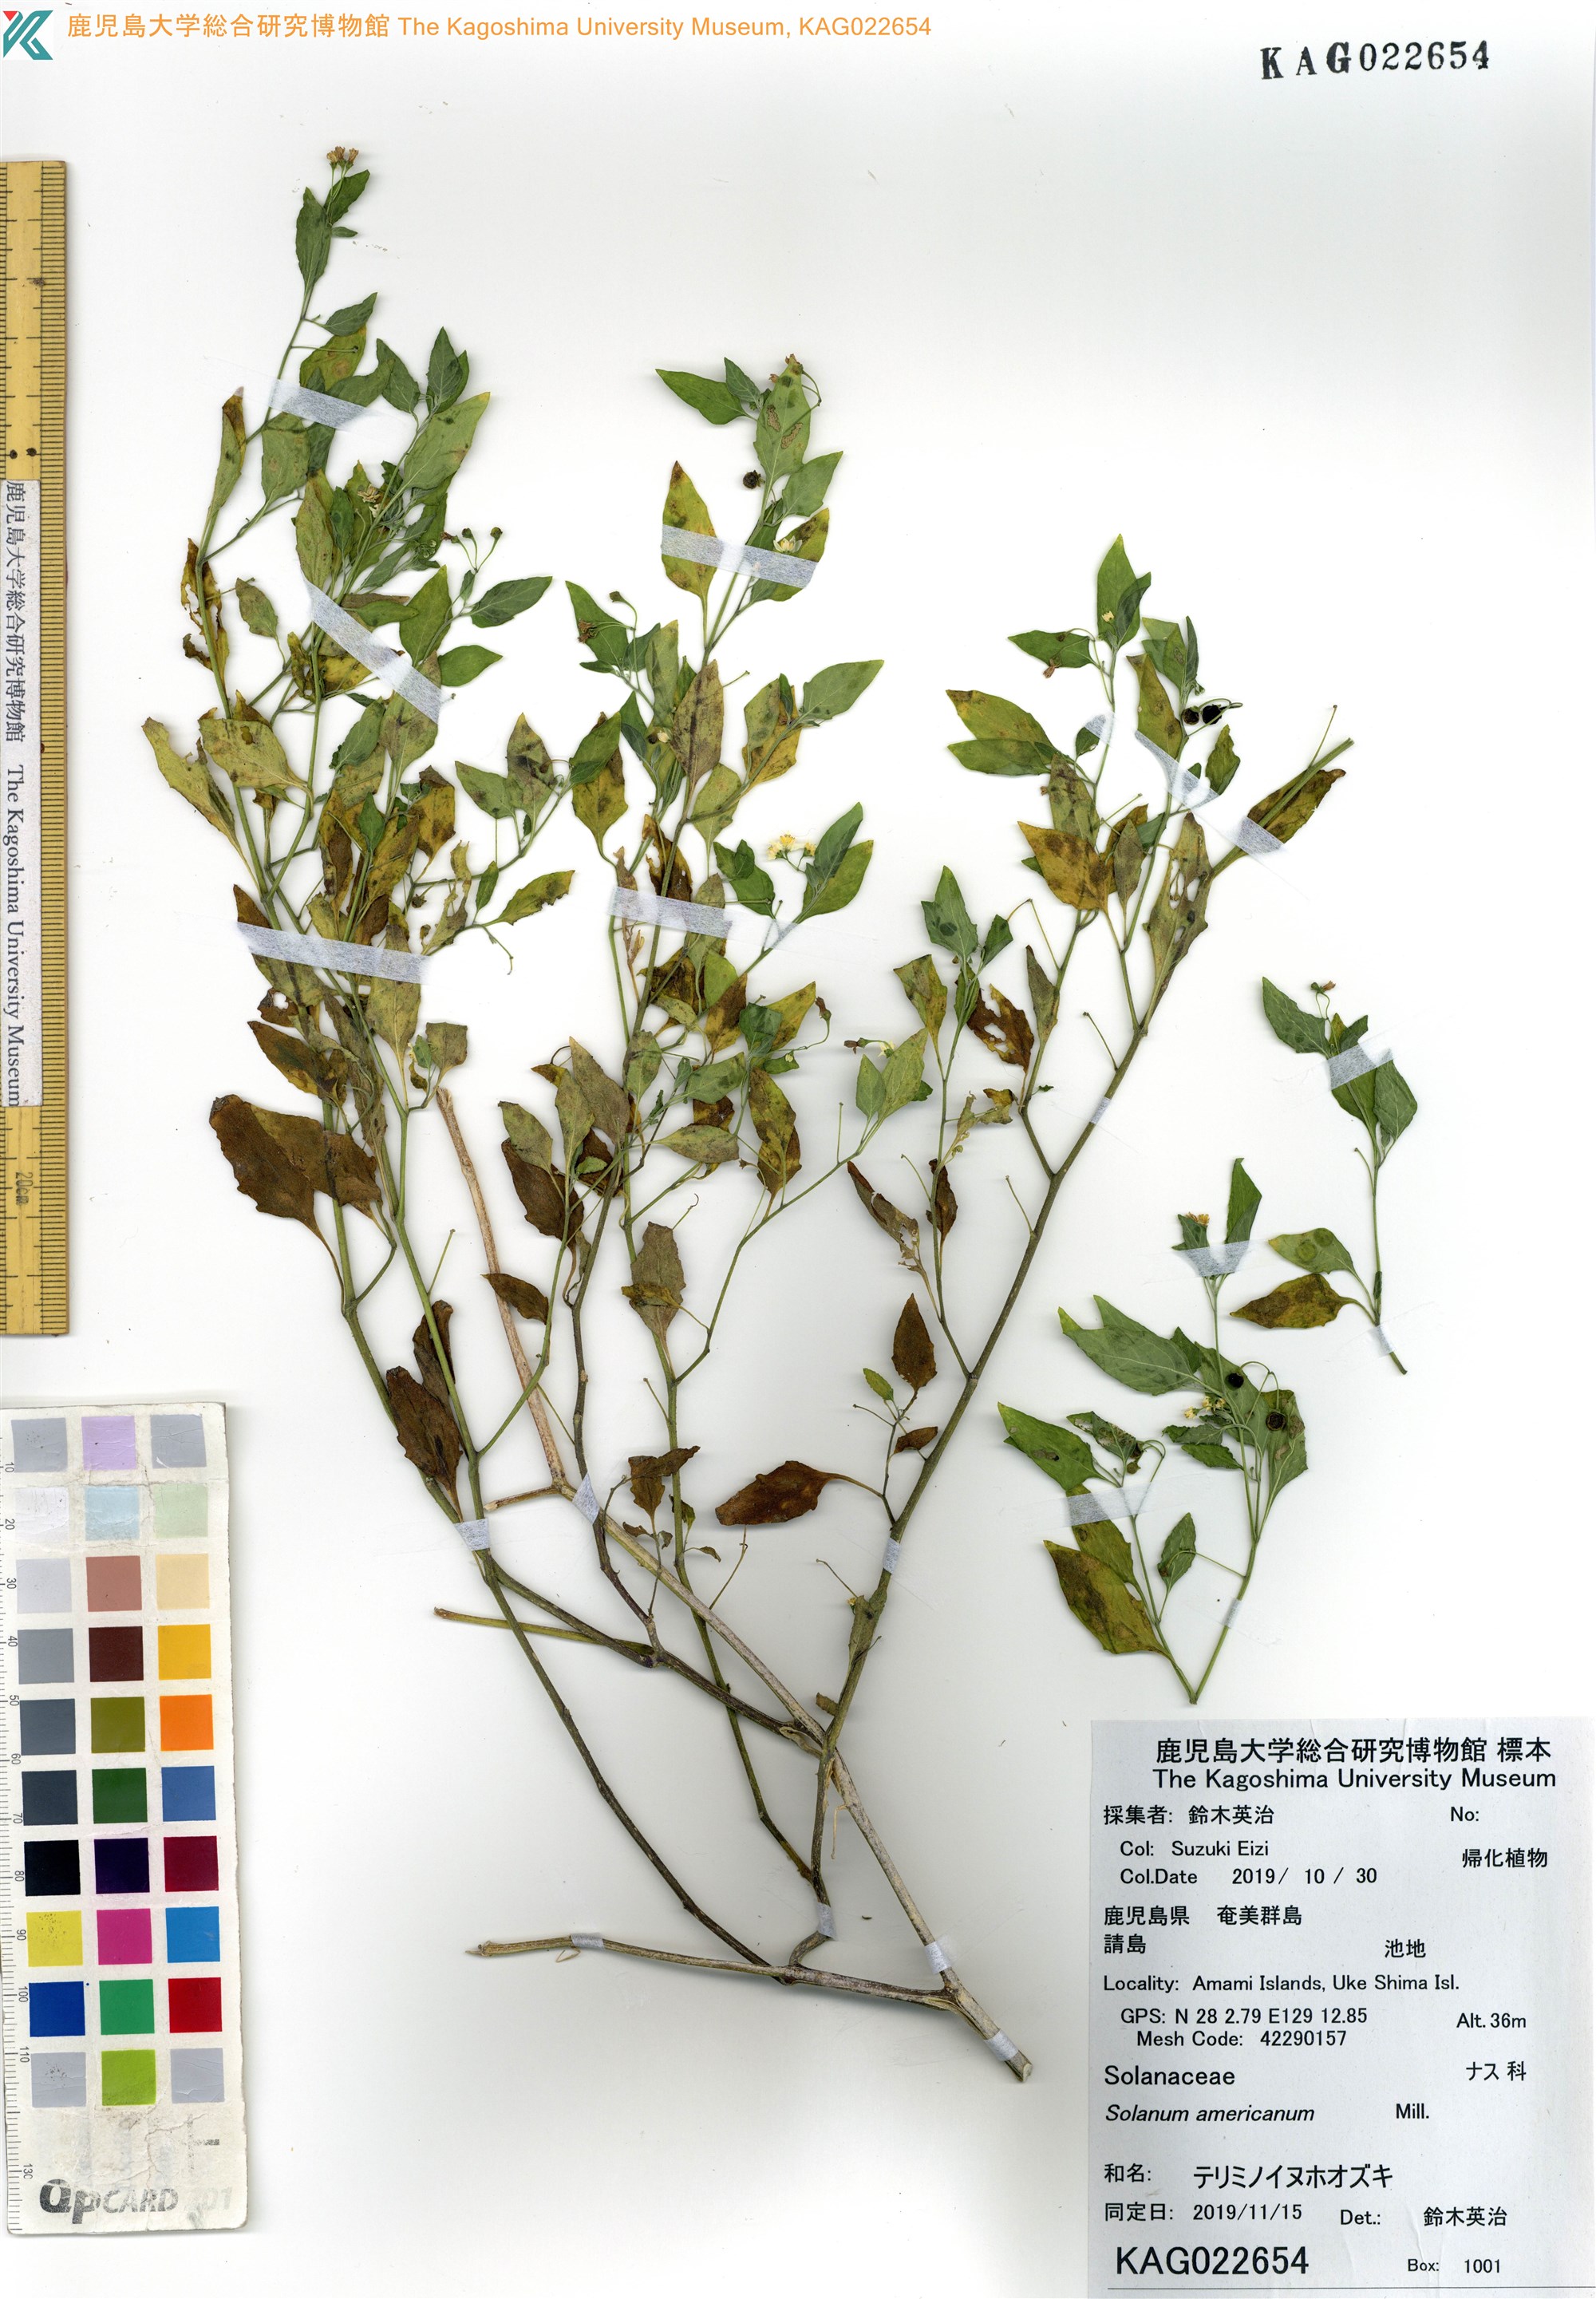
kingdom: Plantae
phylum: Tracheophyta
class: Magnoliopsida
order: Solanales
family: Solanaceae
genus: Solanum
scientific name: Solanum americanum
